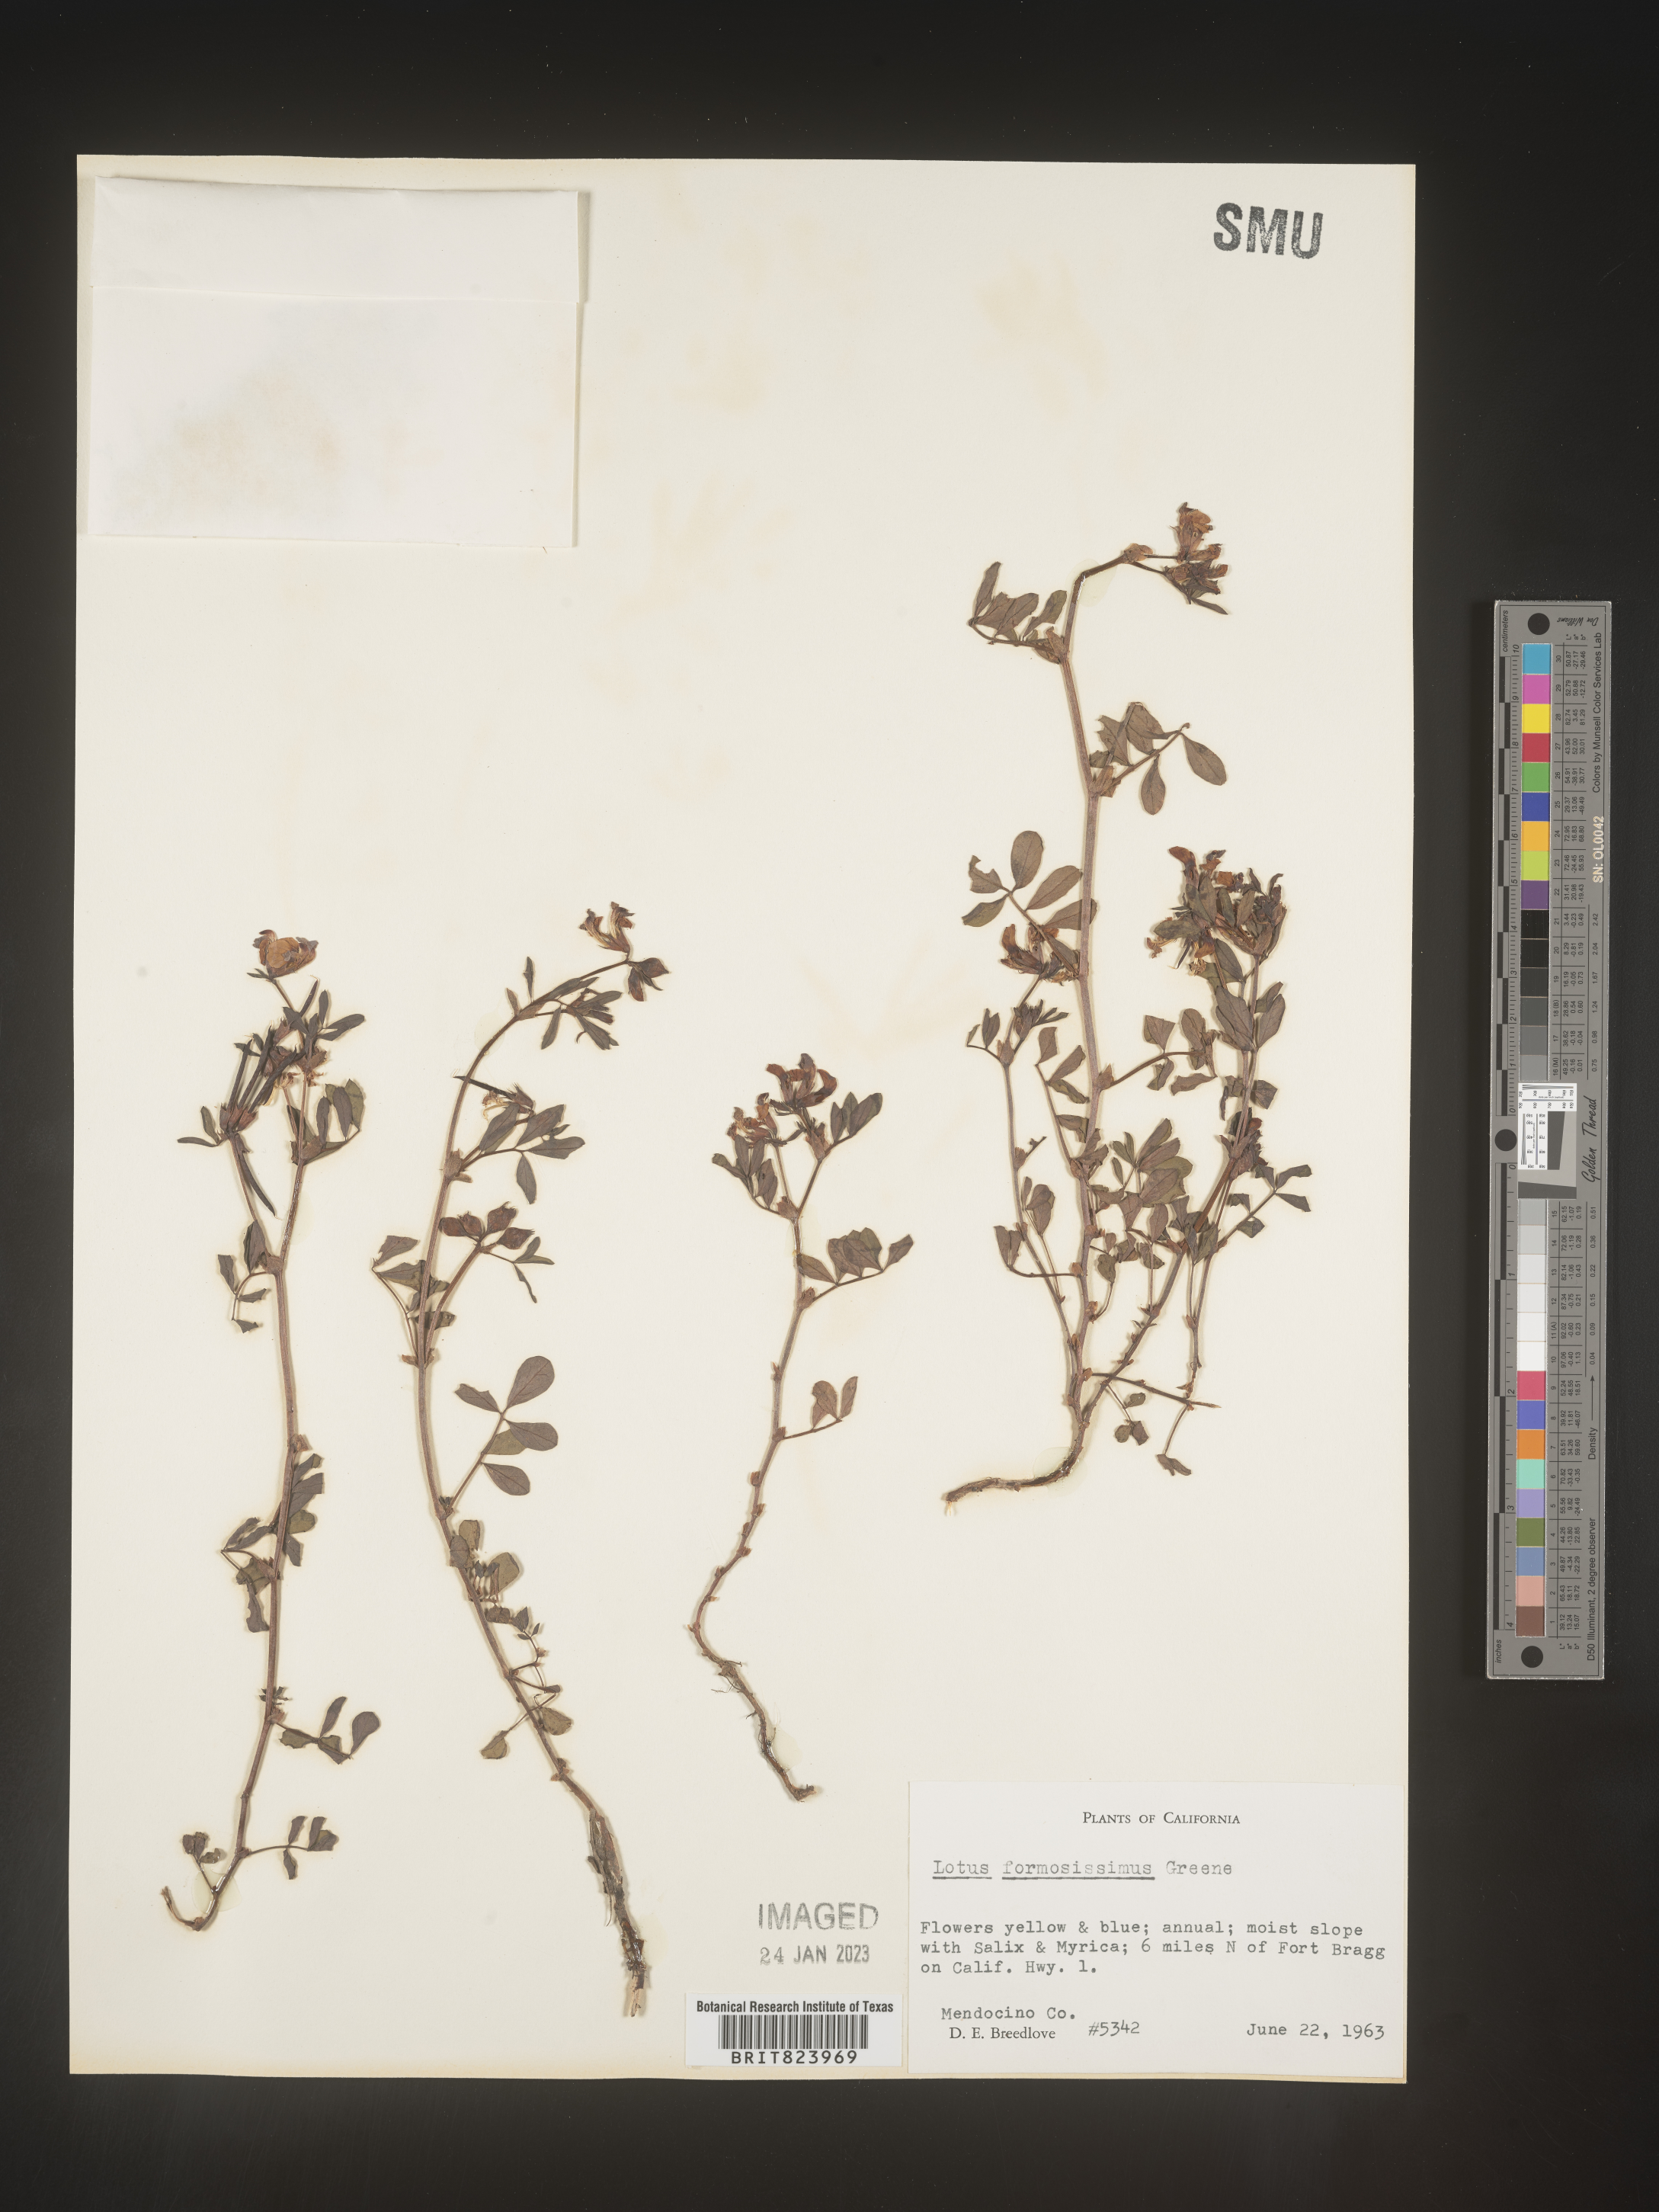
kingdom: Plantae
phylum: Tracheophyta
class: Magnoliopsida
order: Fabales
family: Fabaceae
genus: Lotus
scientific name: Lotus
